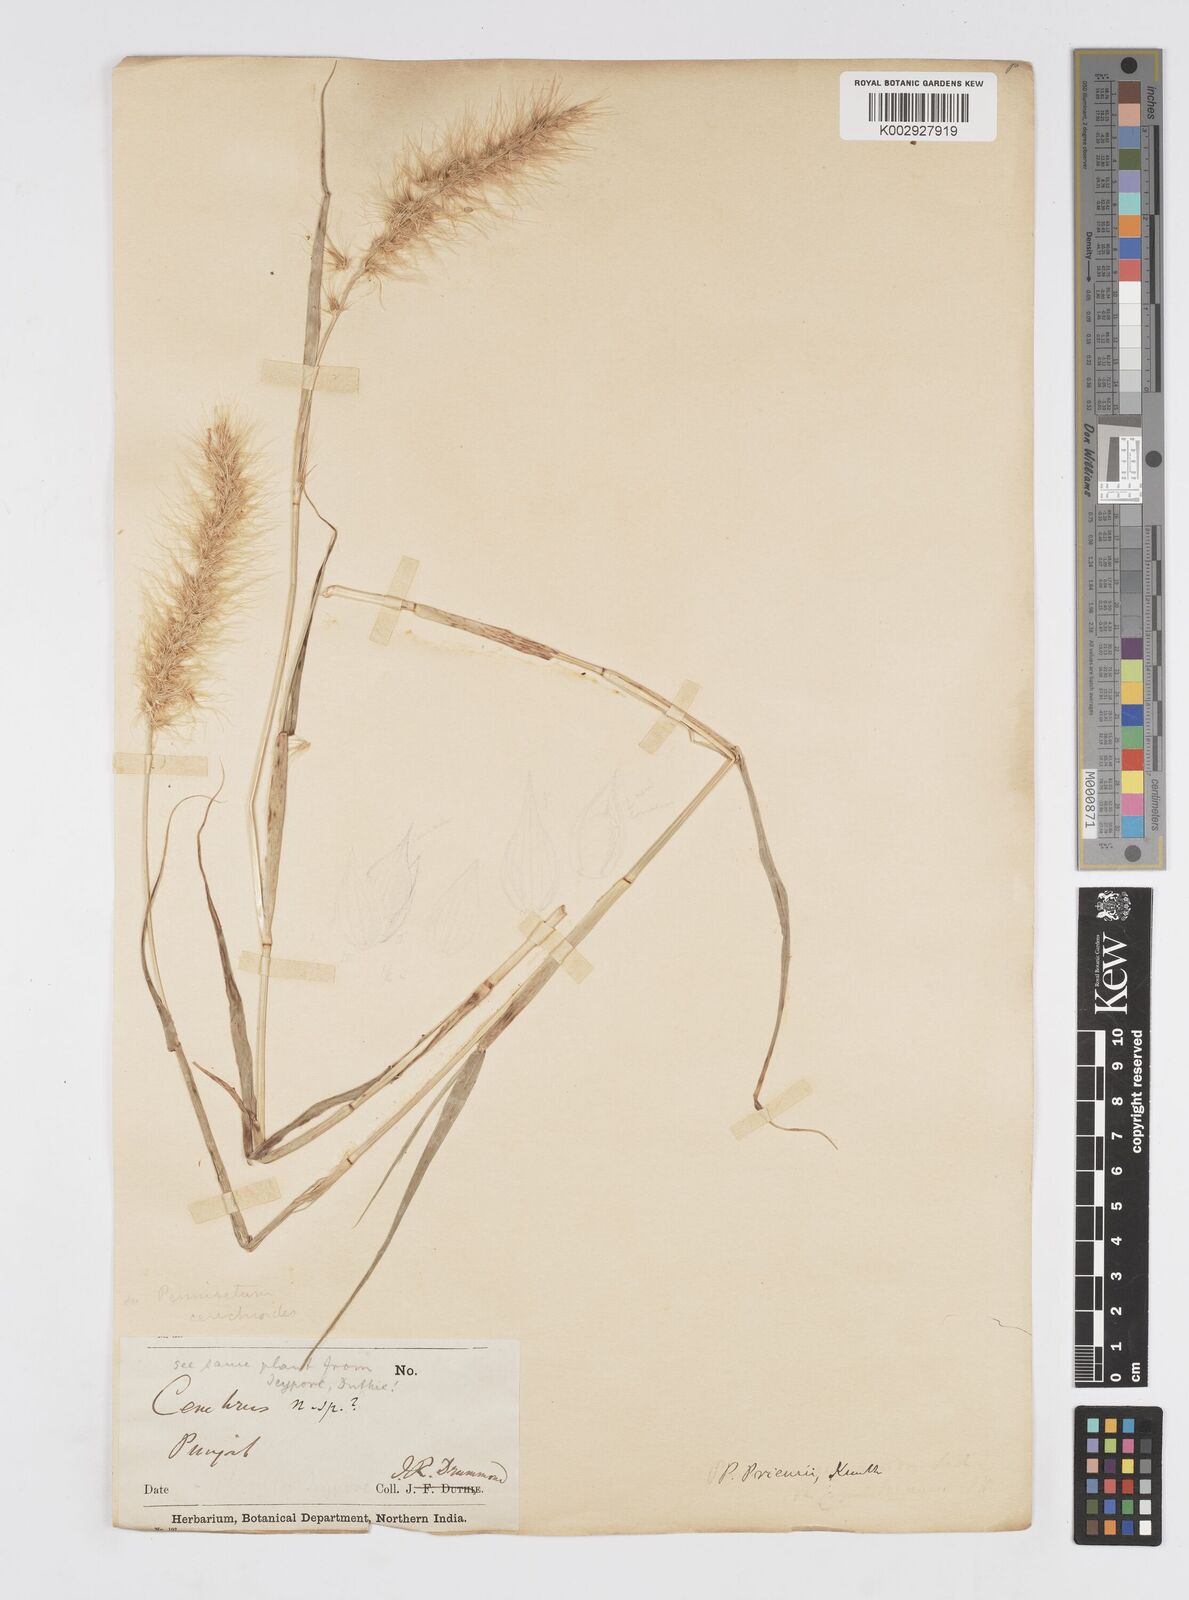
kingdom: Plantae
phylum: Tracheophyta
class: Liliopsida
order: Poales
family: Poaceae
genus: Cenchrus
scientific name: Cenchrus prieurii
